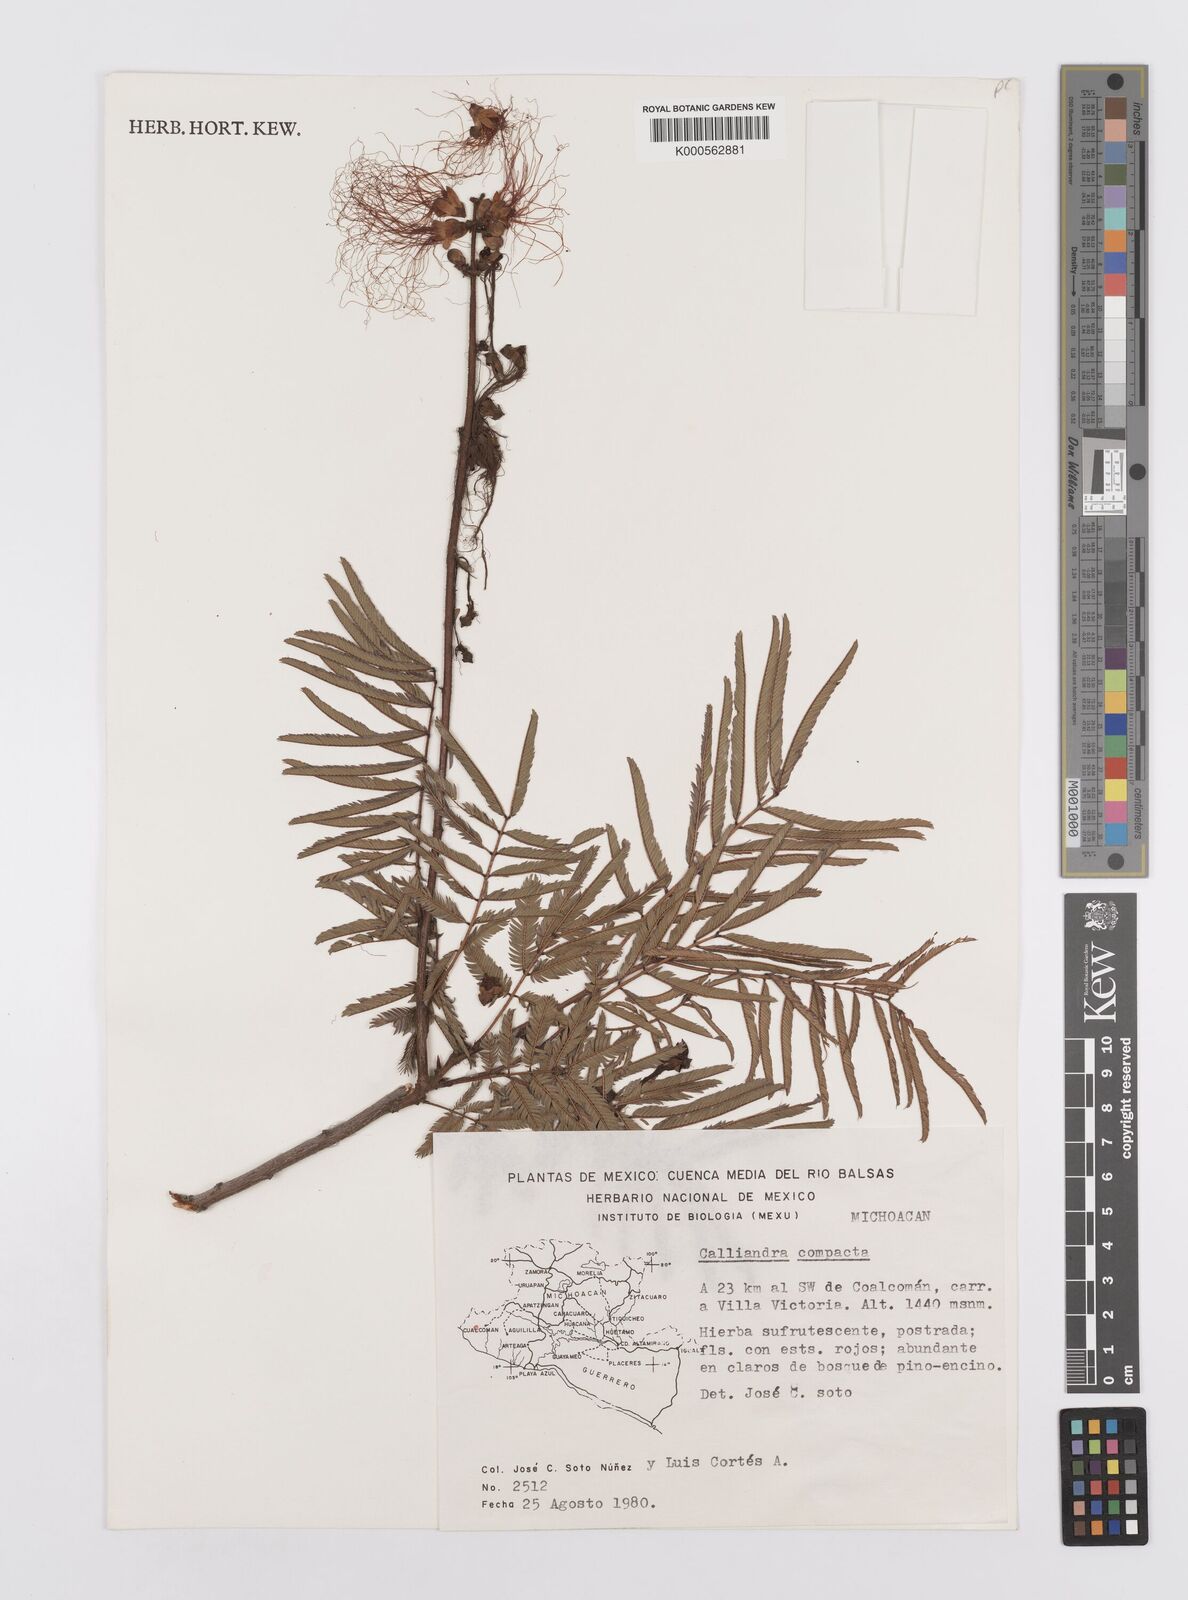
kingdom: Plantae
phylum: Tracheophyta
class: Magnoliopsida
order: Fabales
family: Fabaceae
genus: Calliandra
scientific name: Calliandra rubescens
